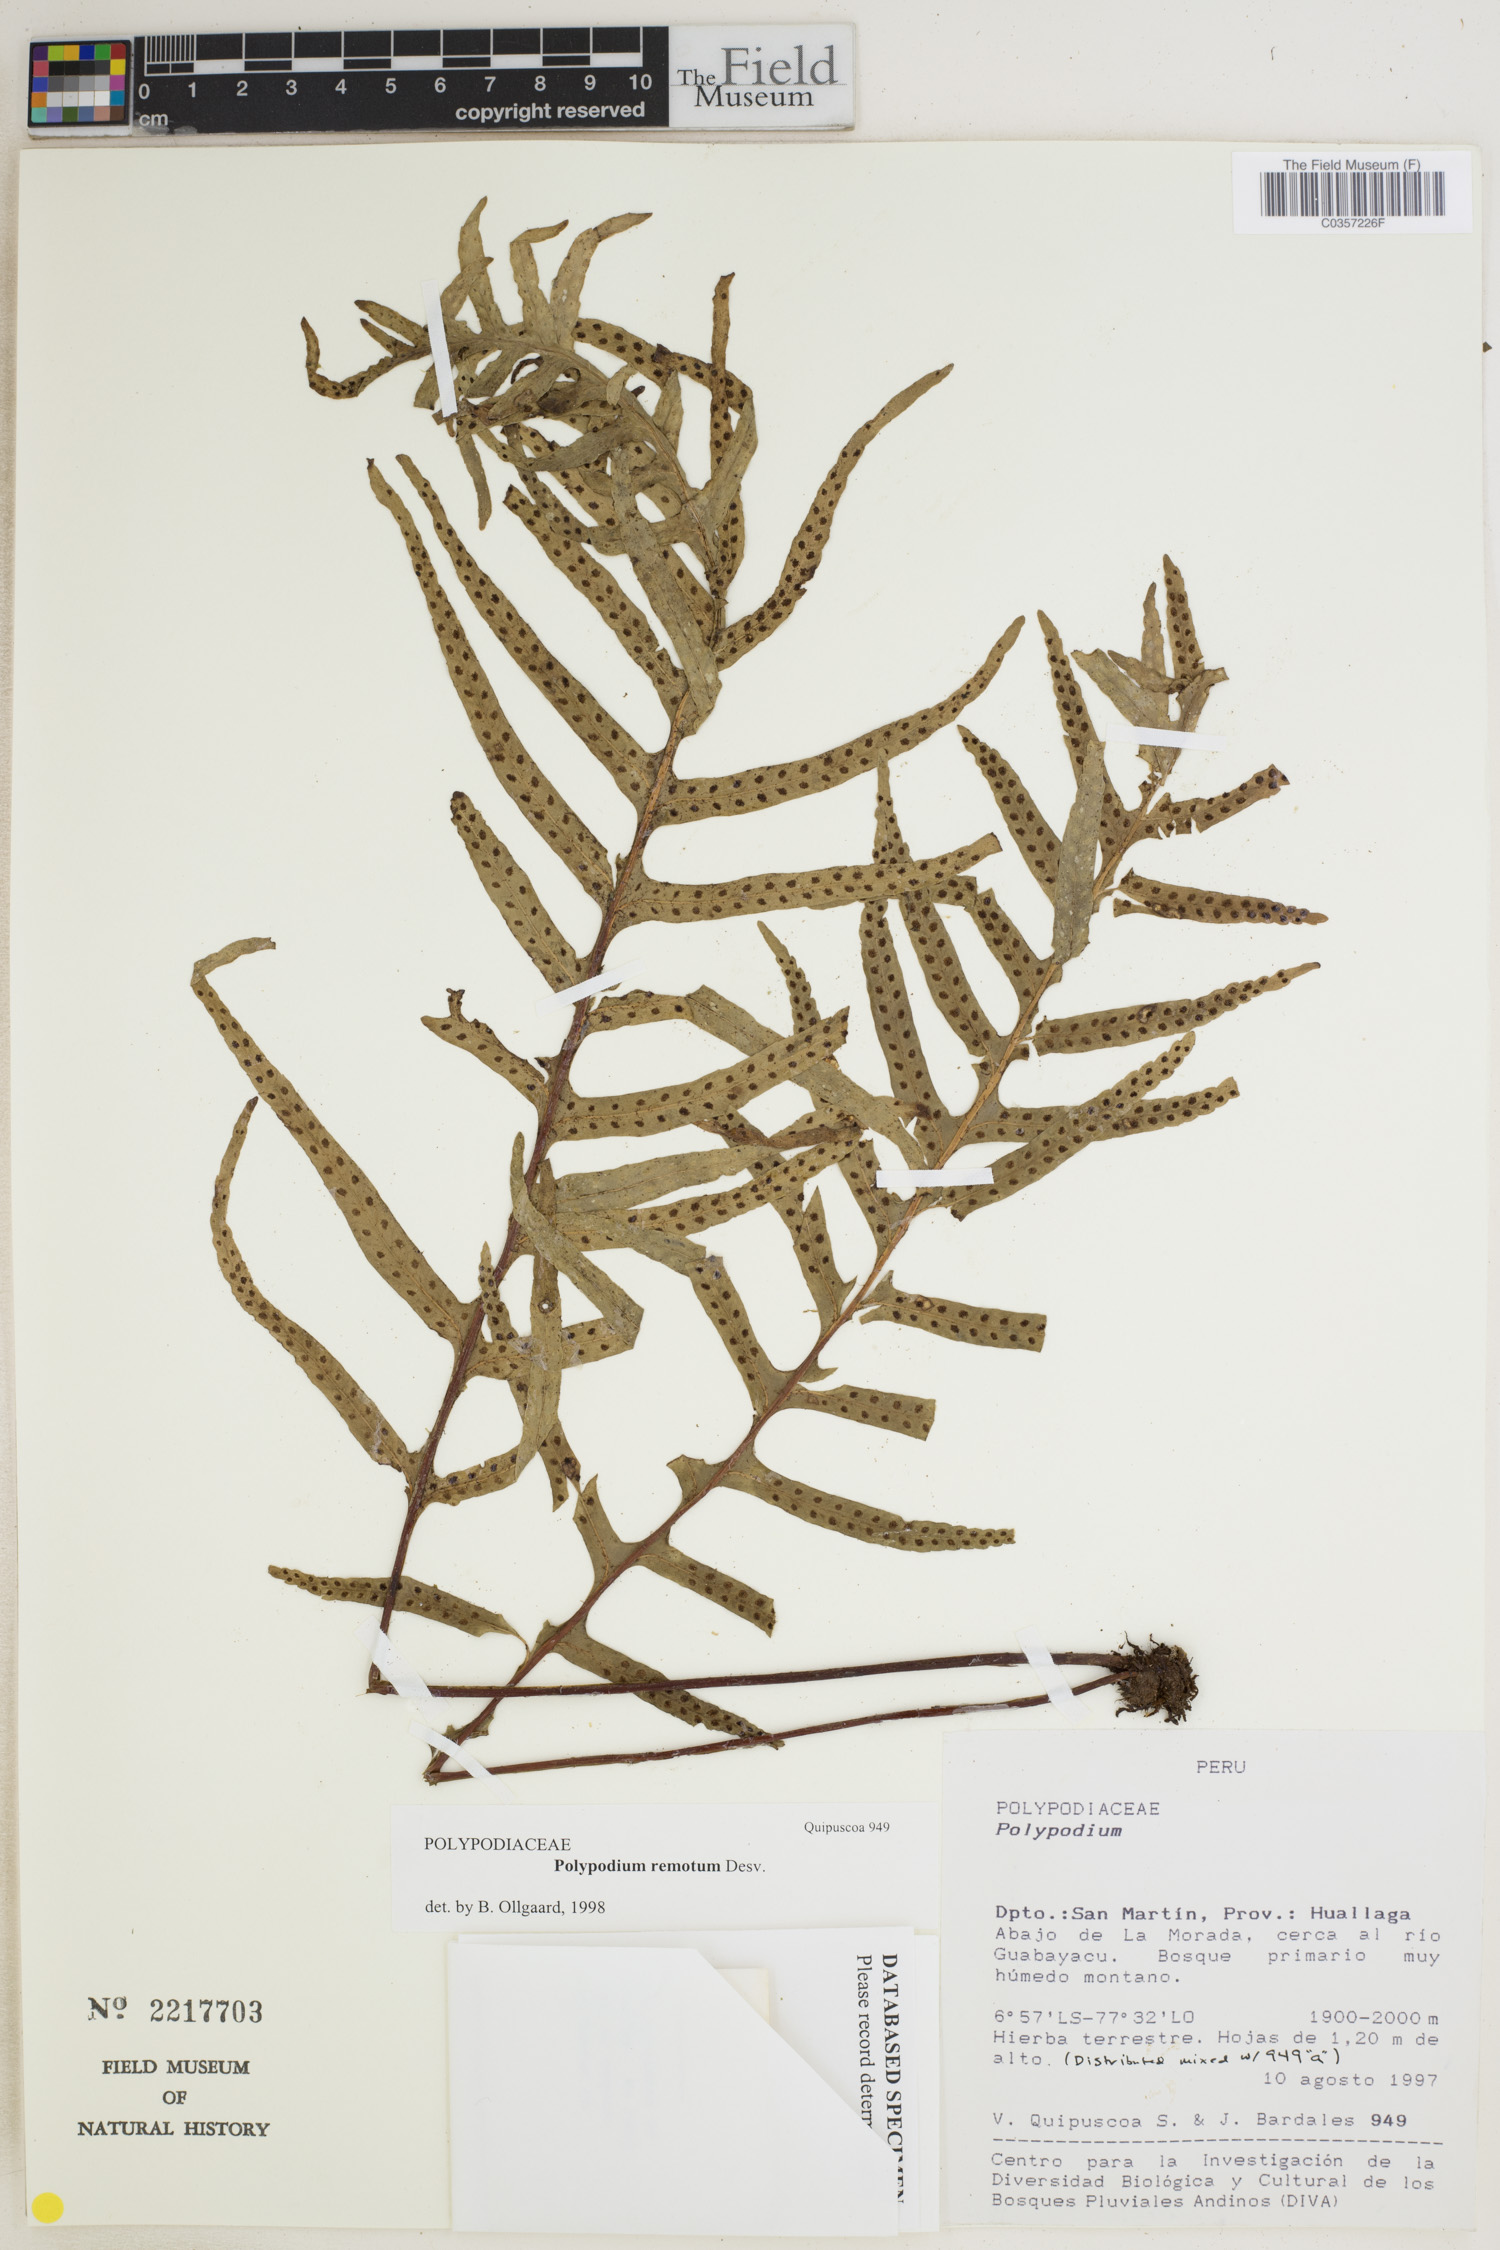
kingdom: Plantae
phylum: Tracheophyta
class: Polypodiopsida
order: Polypodiales
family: Polypodiaceae
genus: Pleopeltis
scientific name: Pleopeltis remota
